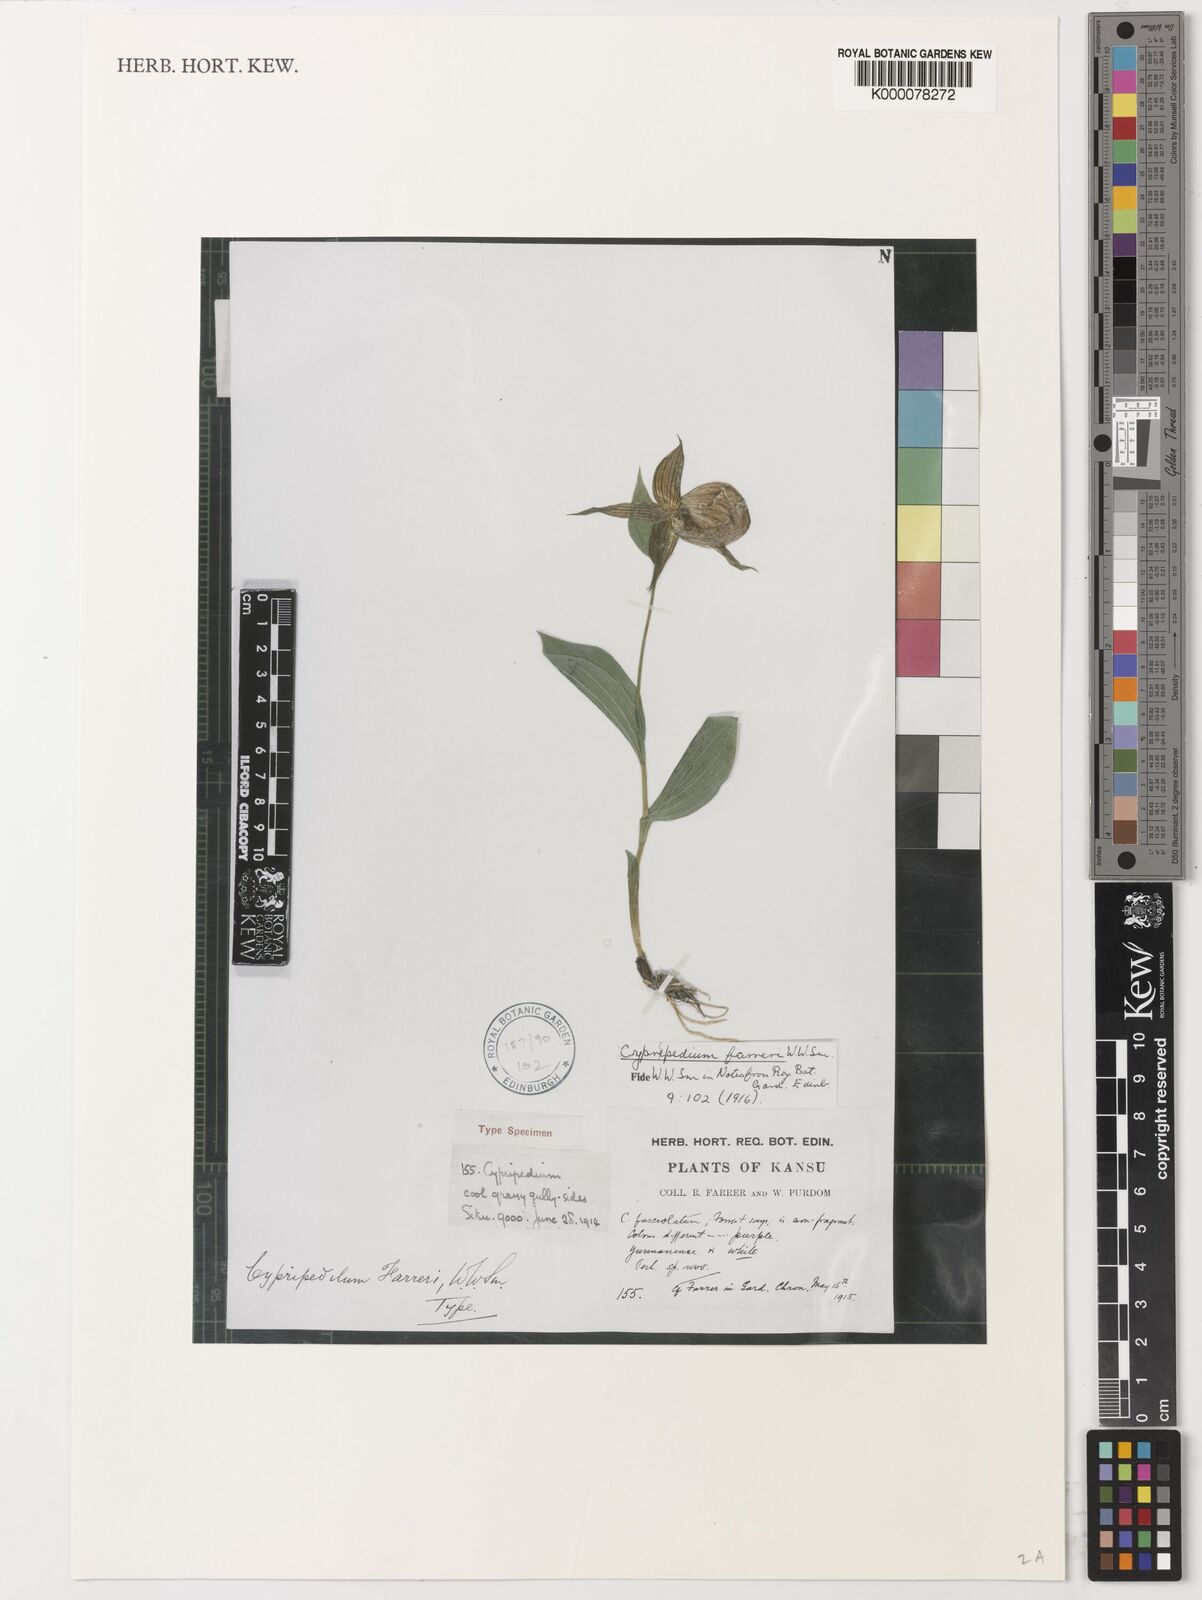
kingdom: Plantae
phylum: Tracheophyta
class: Liliopsida
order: Asparagales
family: Orchidaceae
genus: Cypripedium
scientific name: Cypripedium farreri
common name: Farrer's cypripedium
